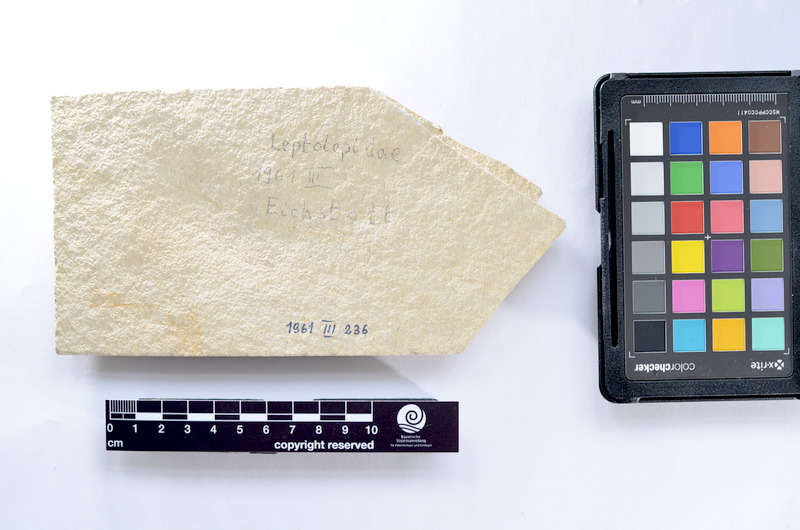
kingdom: Animalia
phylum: Chordata
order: Elopiformes
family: Anaethalionidae
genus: Anaethalion
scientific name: Anaethalion knorri
